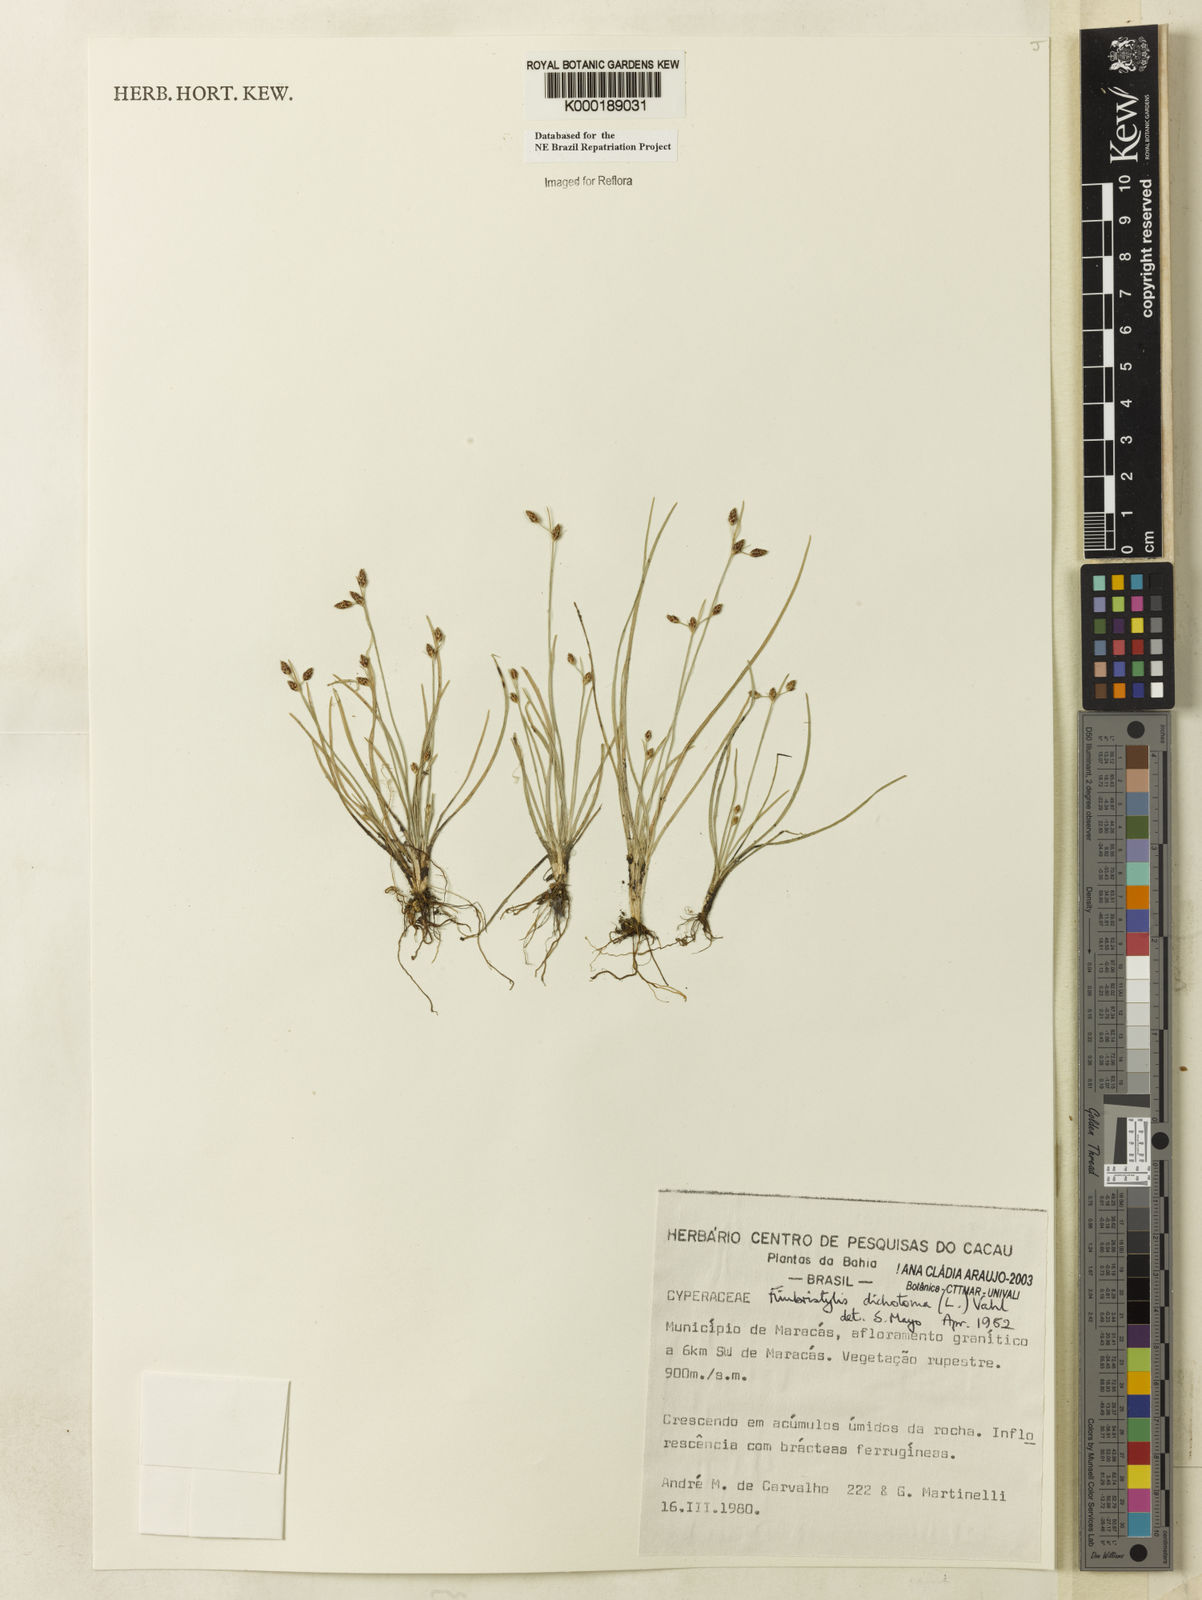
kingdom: Plantae
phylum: Tracheophyta
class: Liliopsida
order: Poales
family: Cyperaceae
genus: Fimbristylis
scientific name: Fimbristylis dichotoma
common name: Forked fimbry
